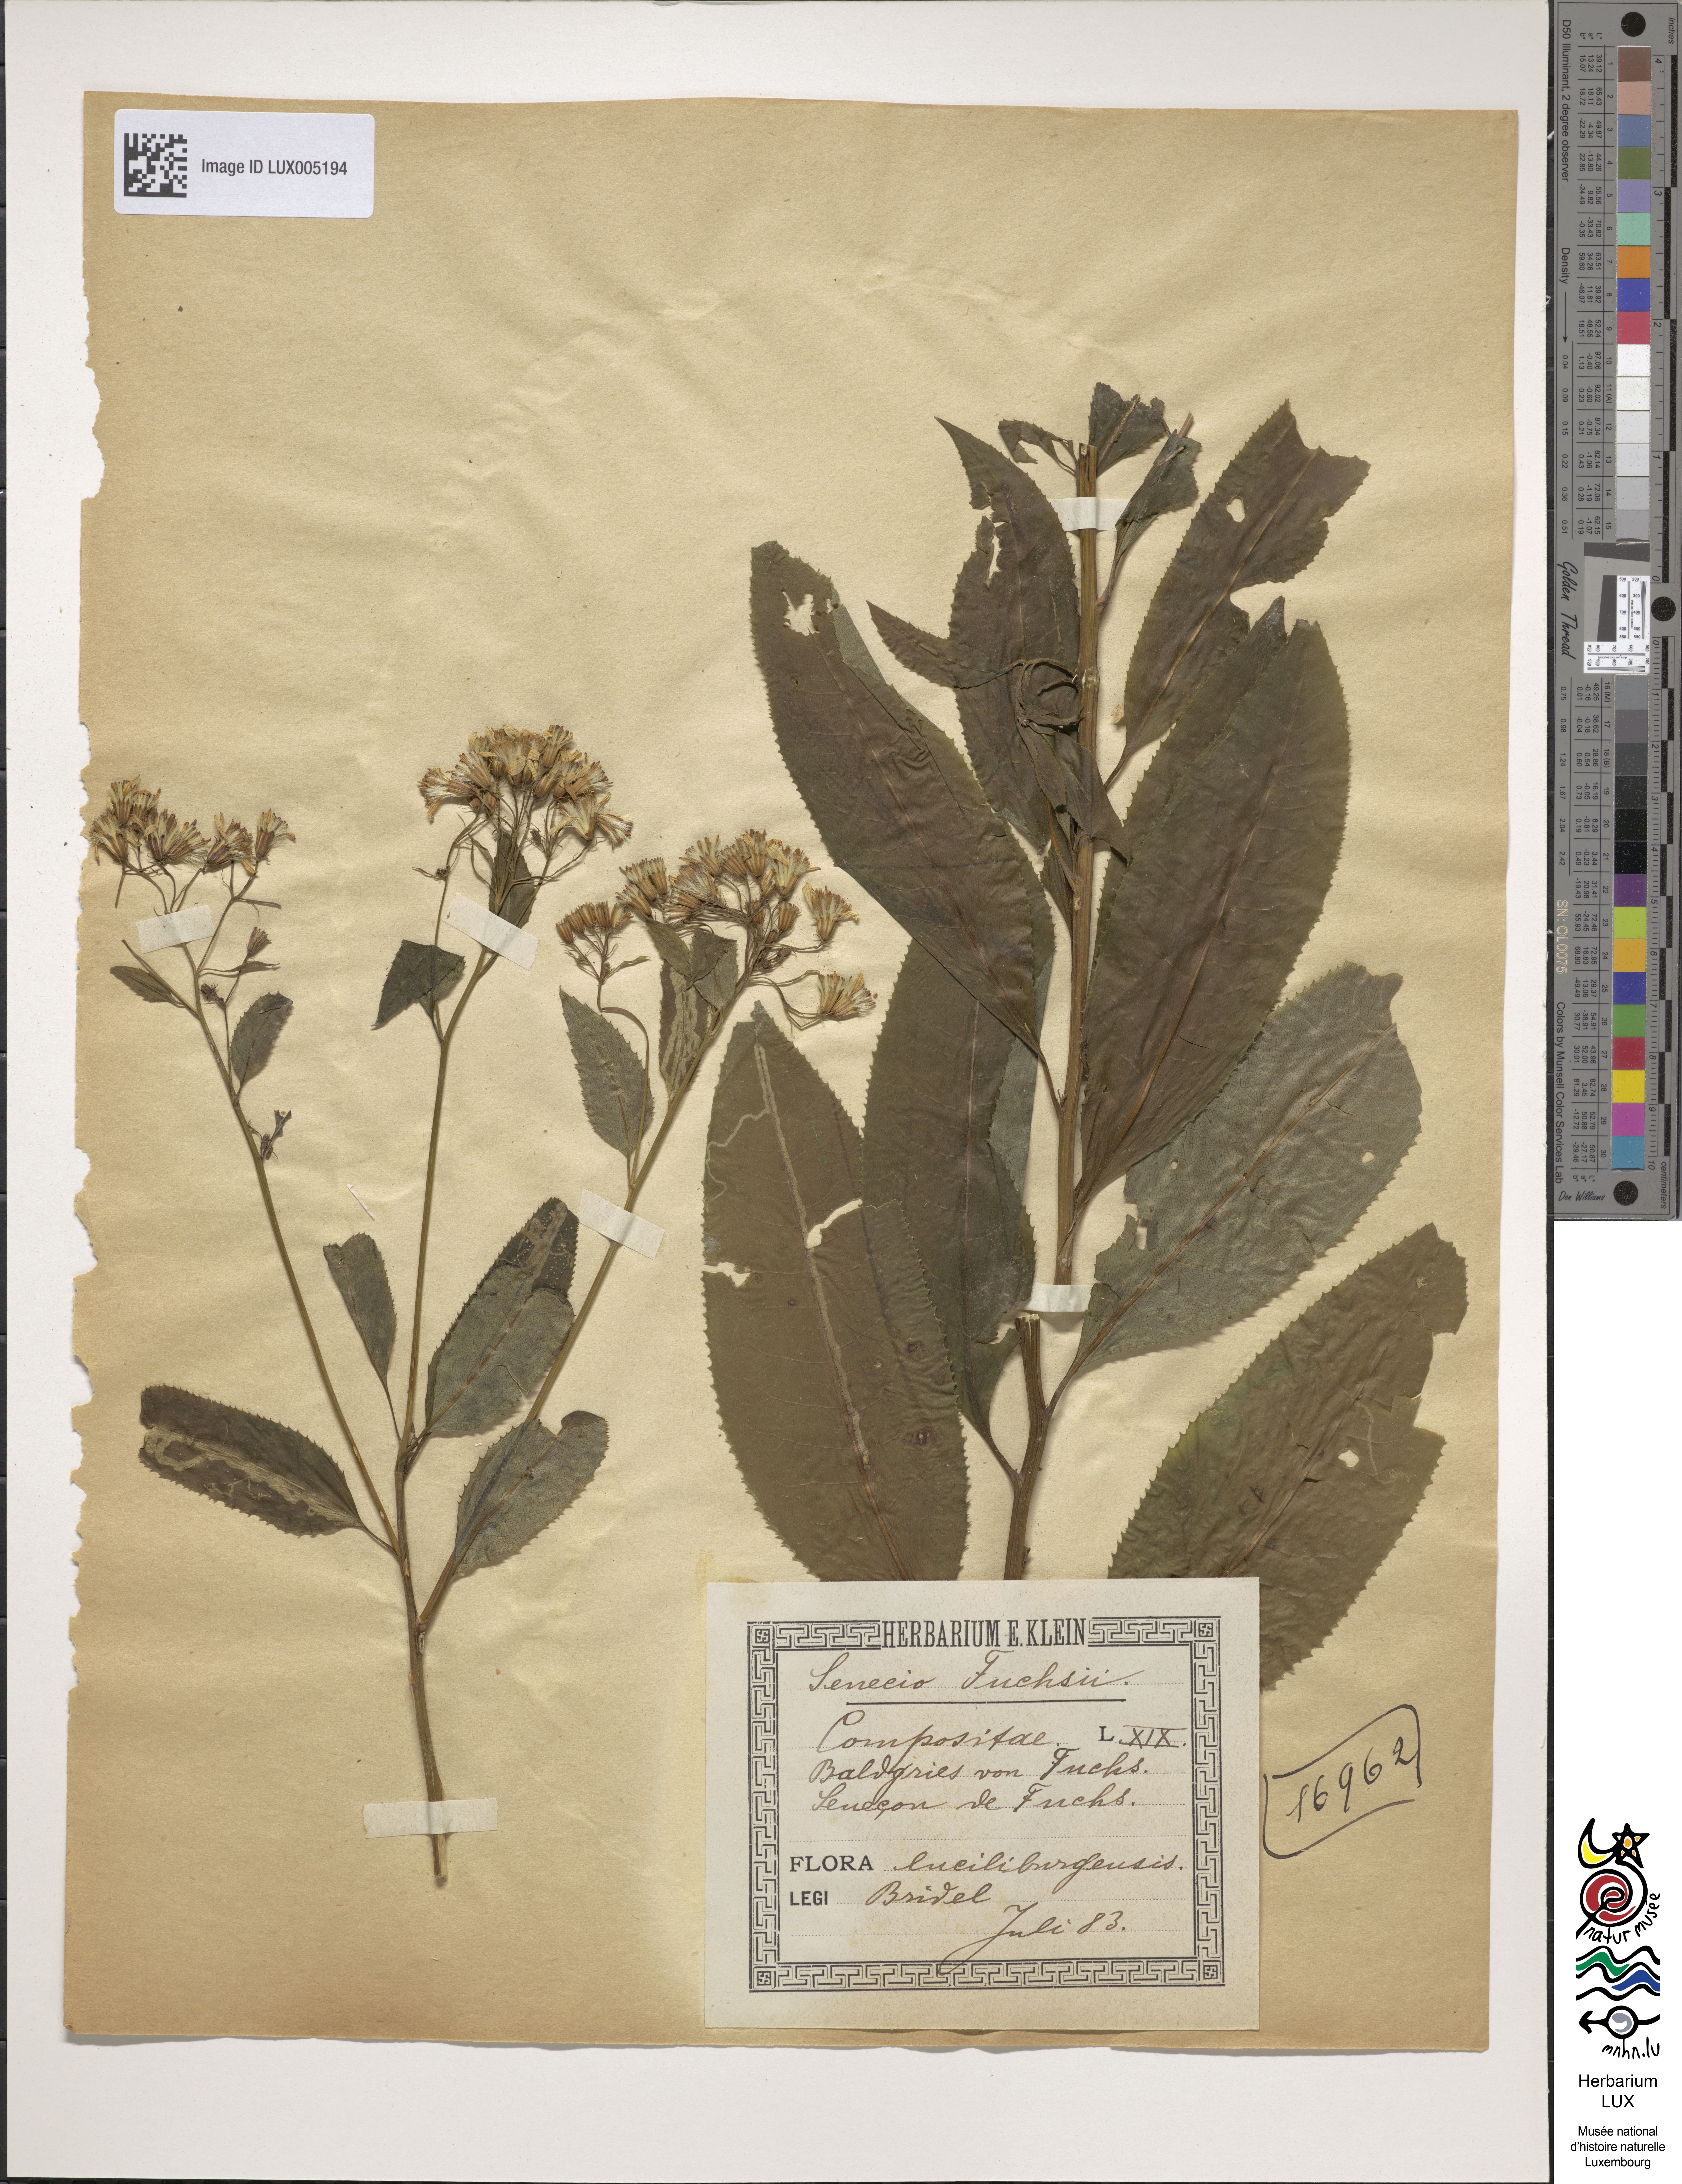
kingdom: Plantae
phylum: Tracheophyta
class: Magnoliopsida
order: Asterales
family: Asteraceae
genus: Senecio
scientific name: Senecio ovatus
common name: Wood ragwort
